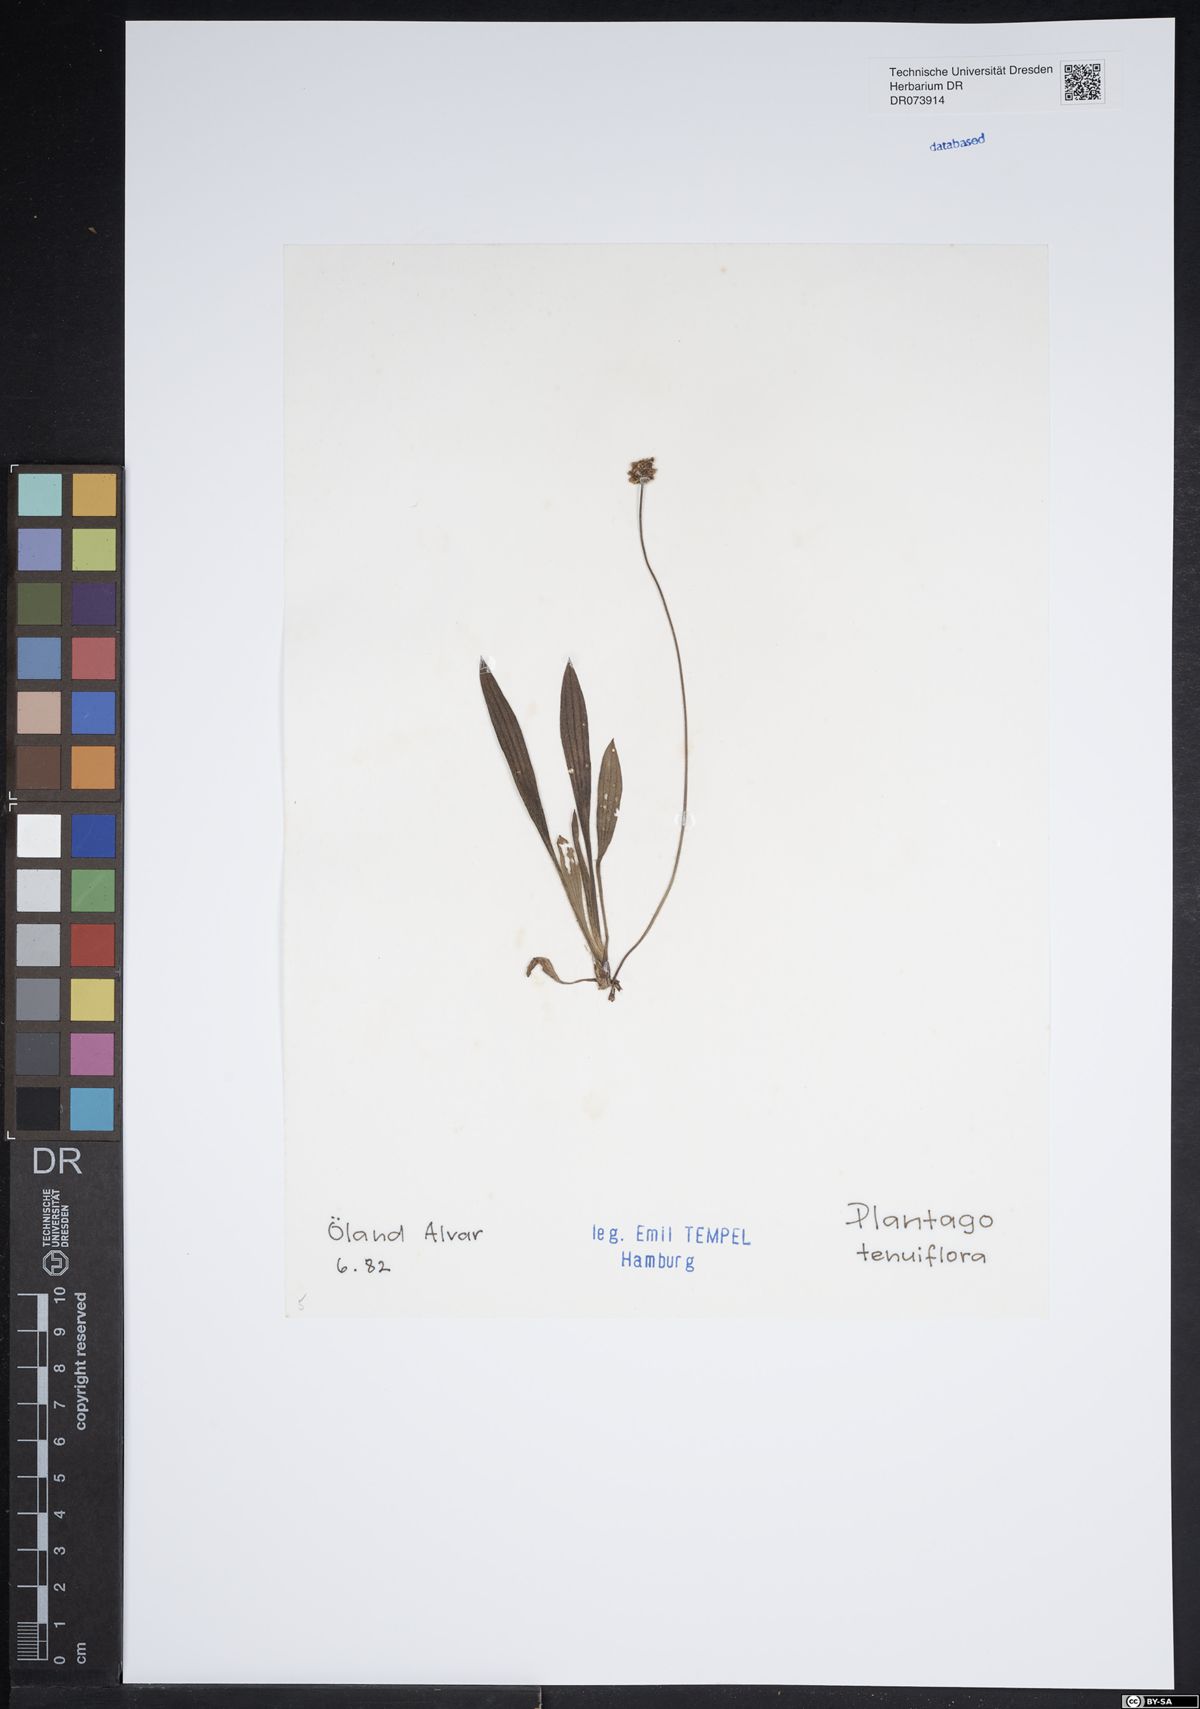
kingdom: Plantae
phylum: Tracheophyta
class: Magnoliopsida
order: Lamiales
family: Plantaginaceae
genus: Plantago
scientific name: Plantago tenuiflora
